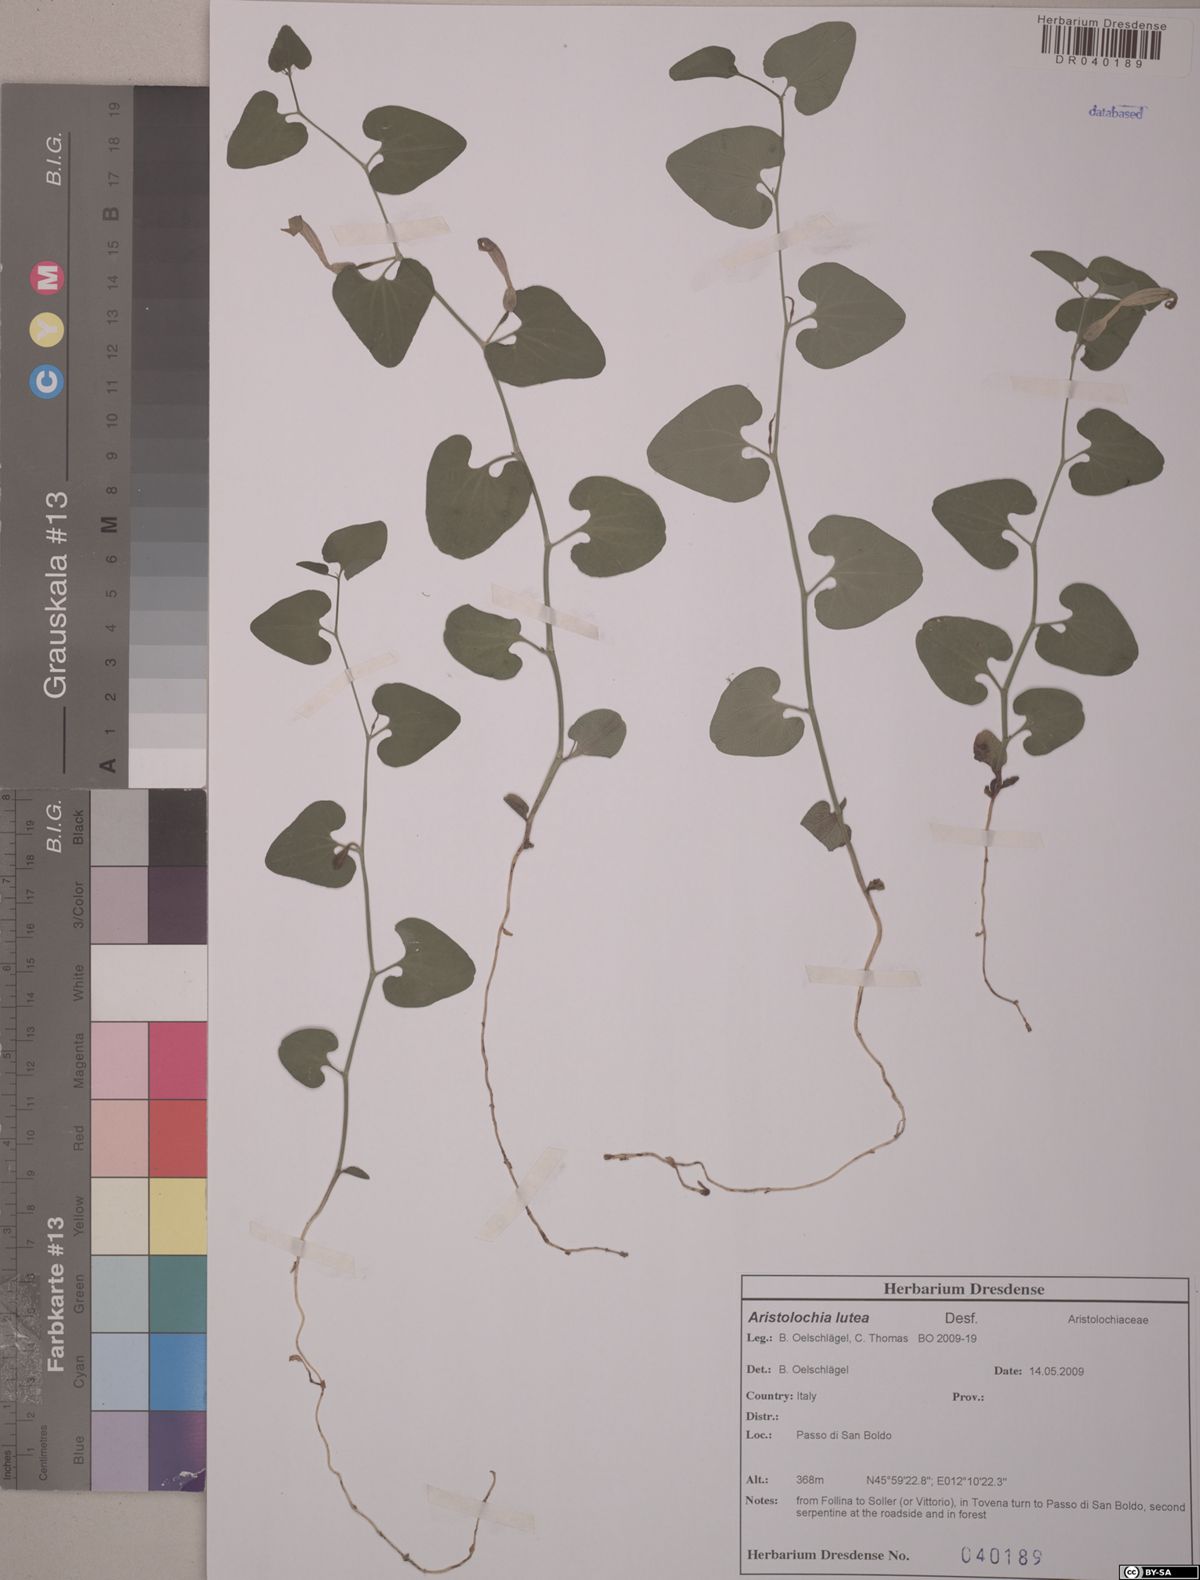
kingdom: Plantae
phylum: Tracheophyta
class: Magnoliopsida
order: Piperales
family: Aristolochiaceae
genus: Aristolochia
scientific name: Aristolochia lutea
